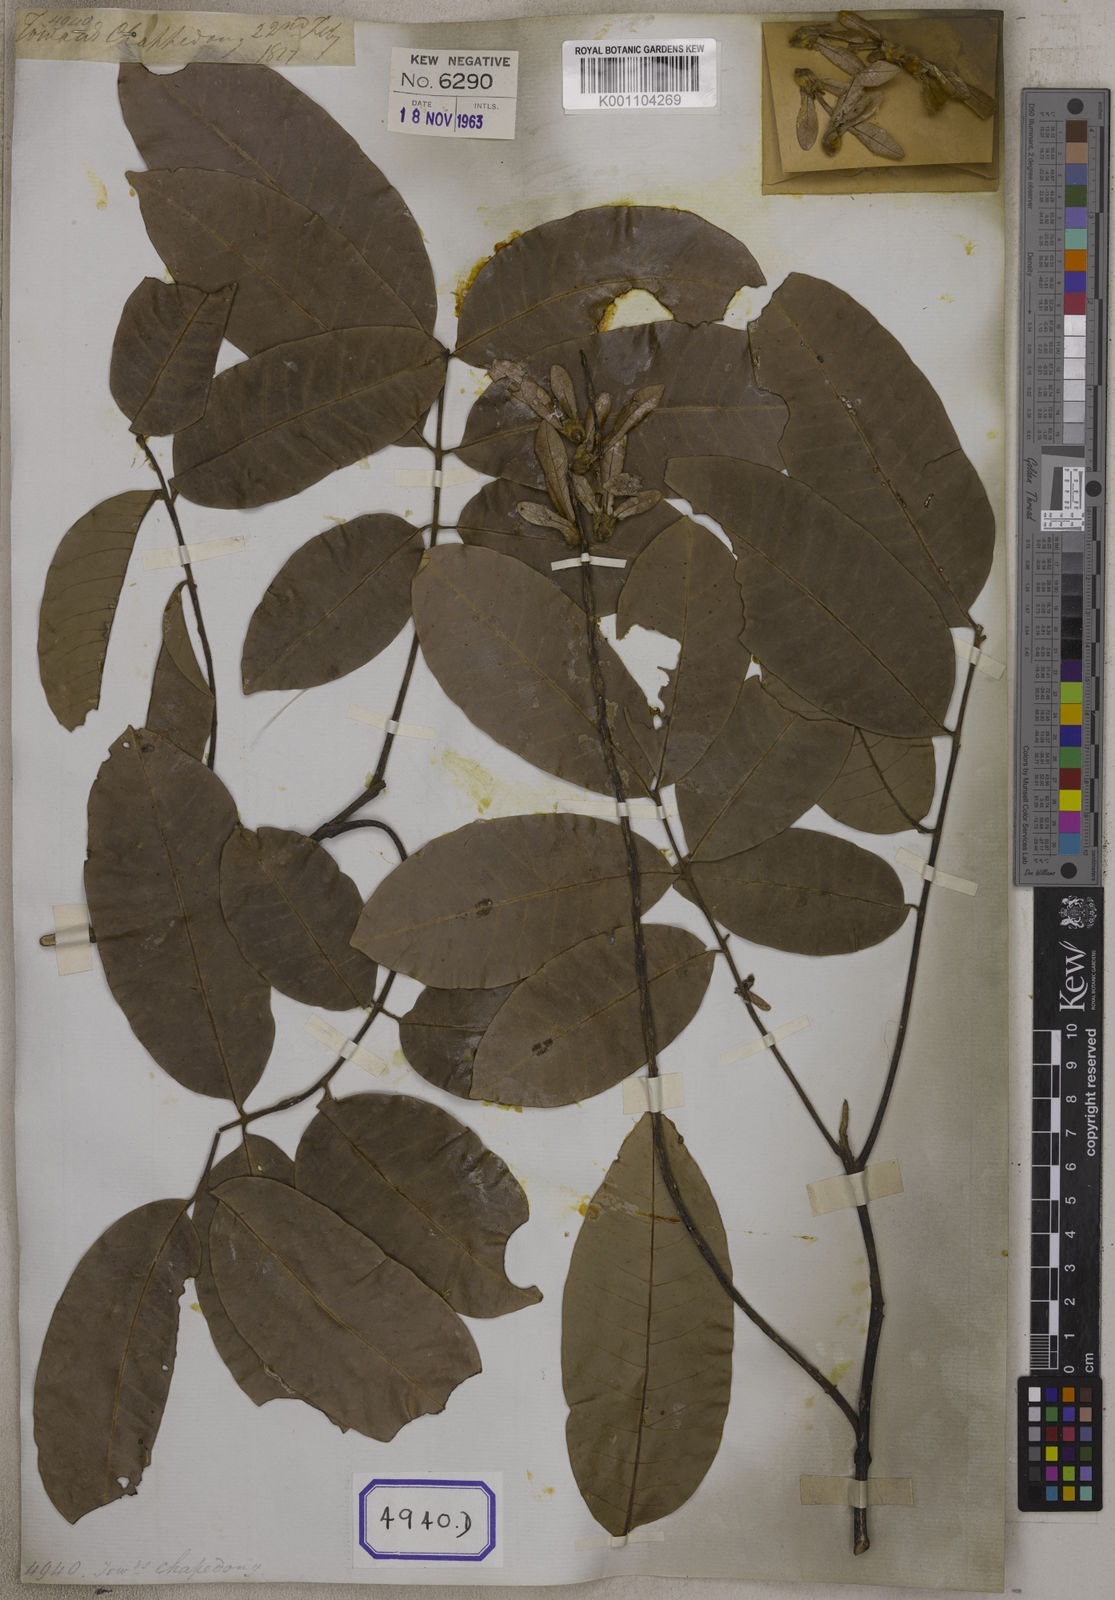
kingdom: Plantae
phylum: Tracheophyta
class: Magnoliopsida
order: Fagales
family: Juglandaceae
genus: Engelhardia
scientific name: Engelhardia spicata
